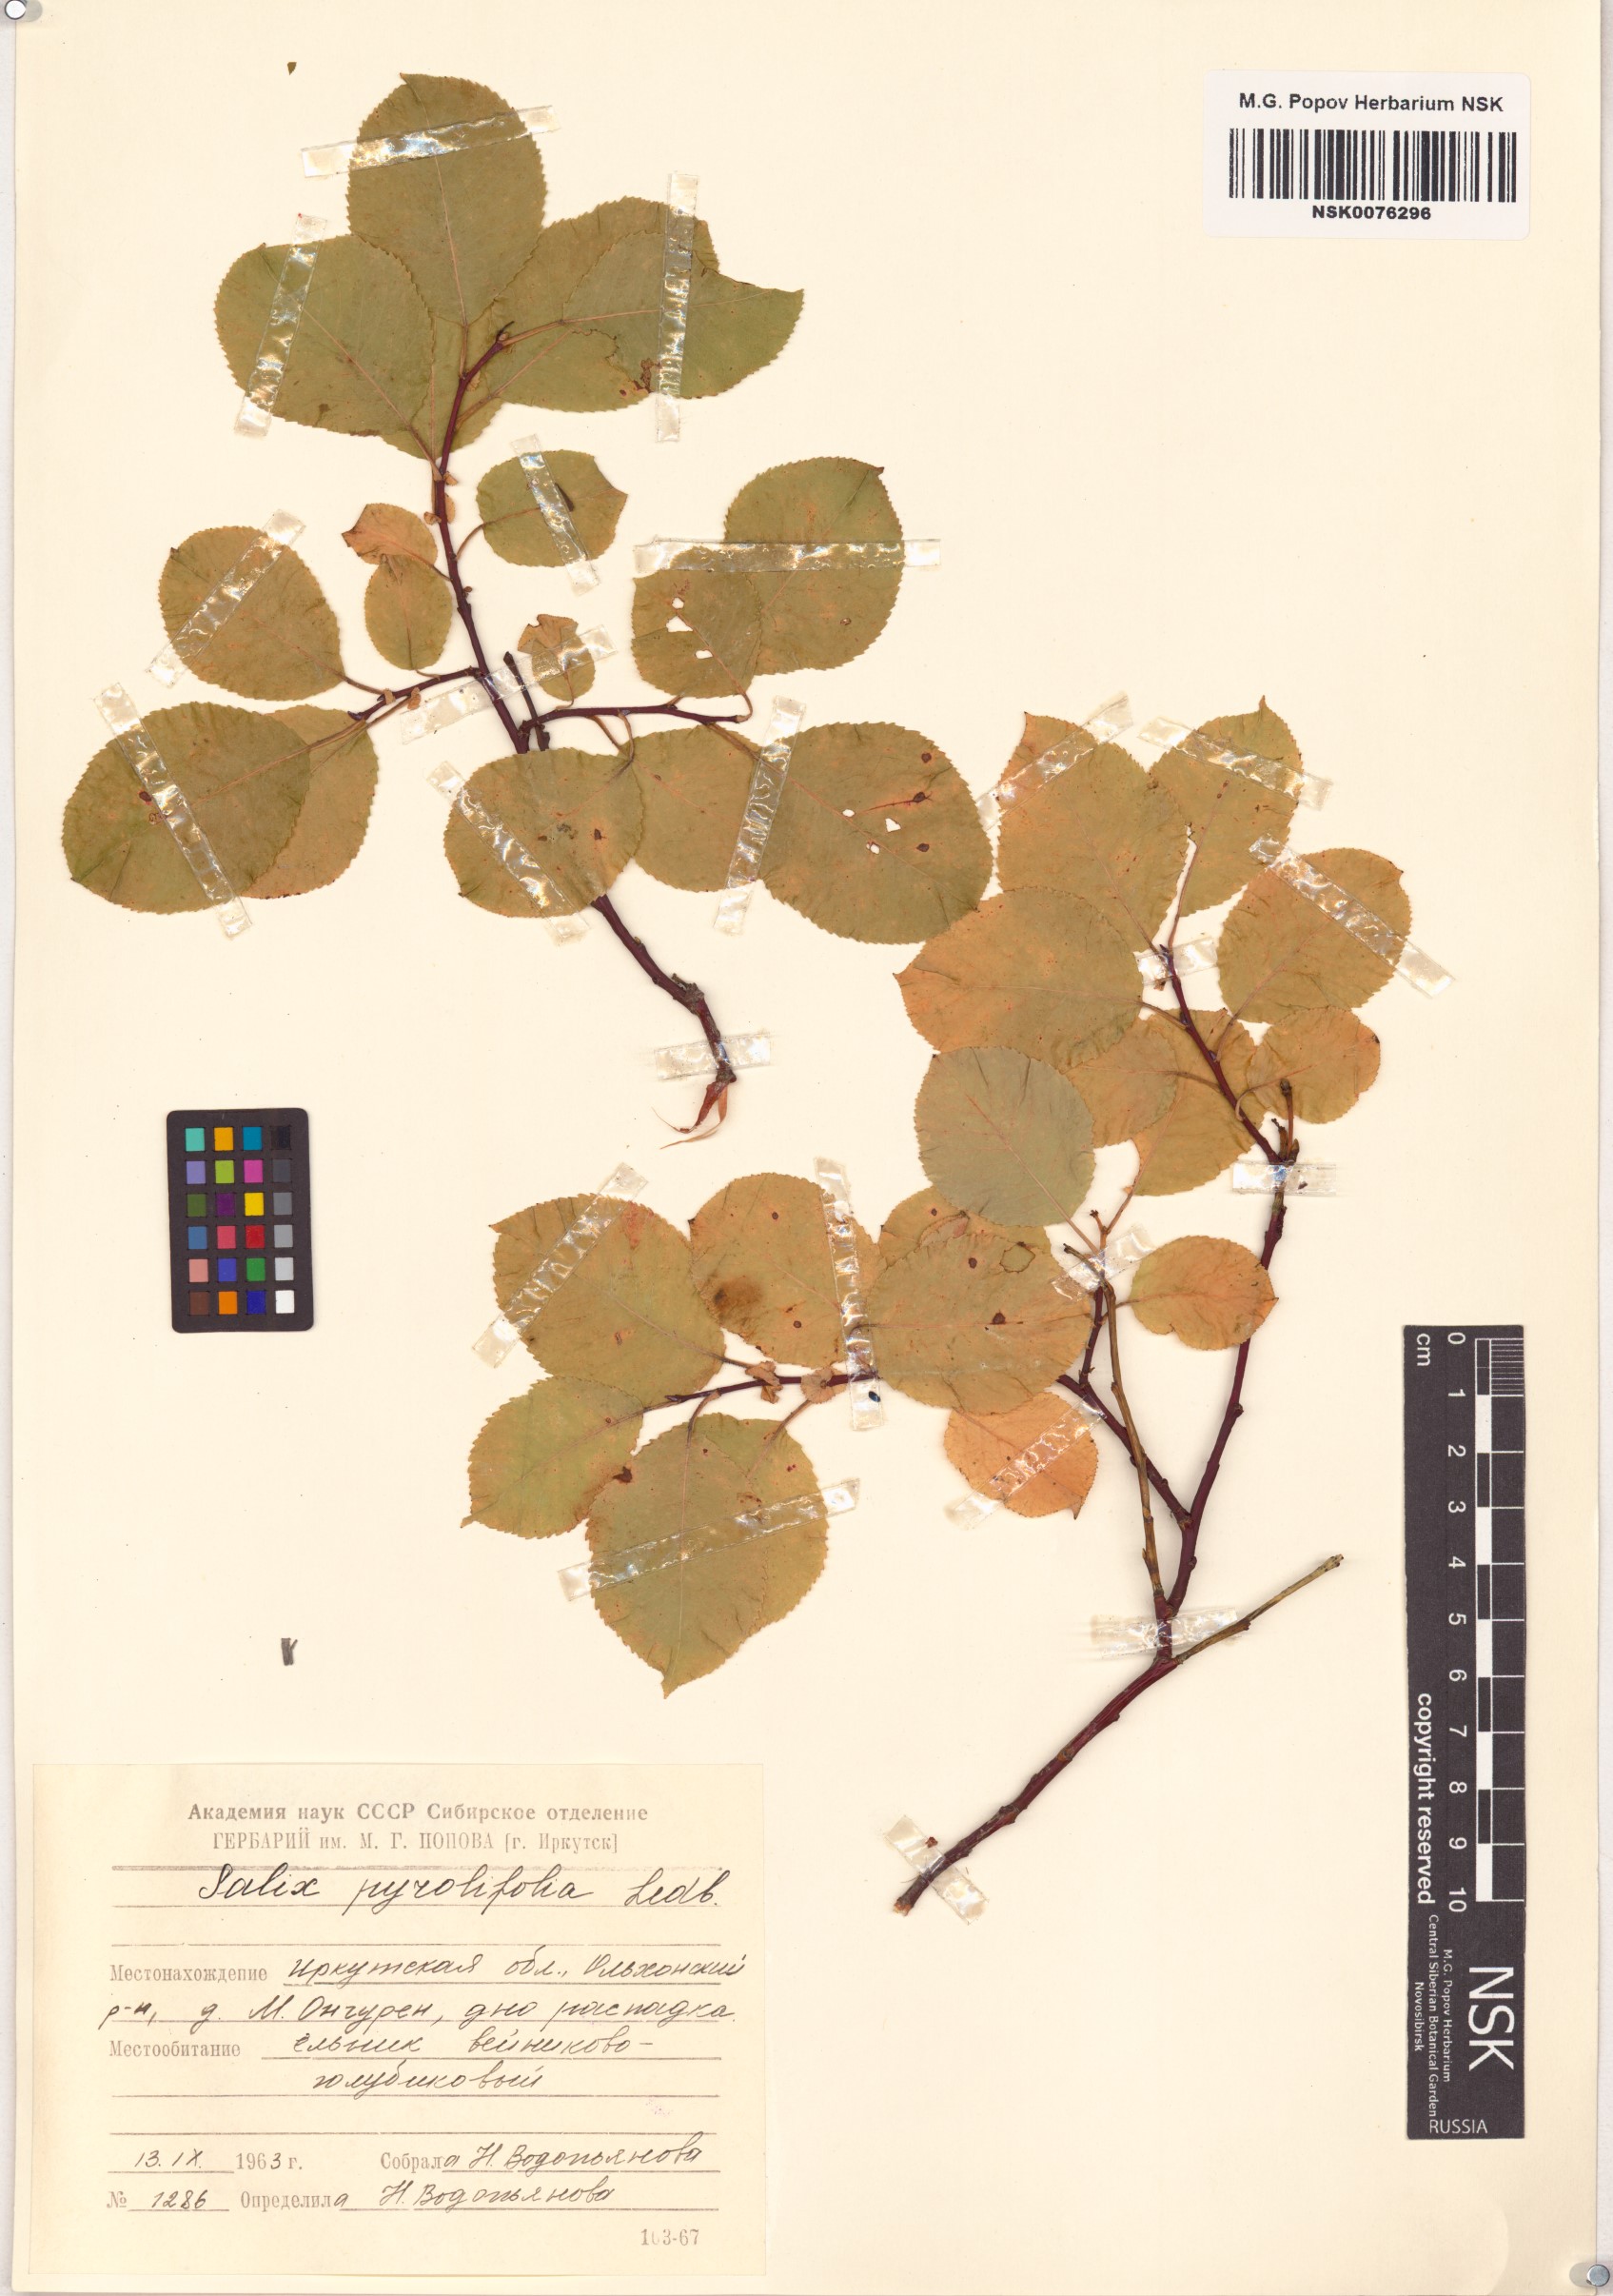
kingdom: Plantae
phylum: Tracheophyta
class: Magnoliopsida
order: Malpighiales
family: Salicaceae
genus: Salix
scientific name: Salix pyrolifolia
